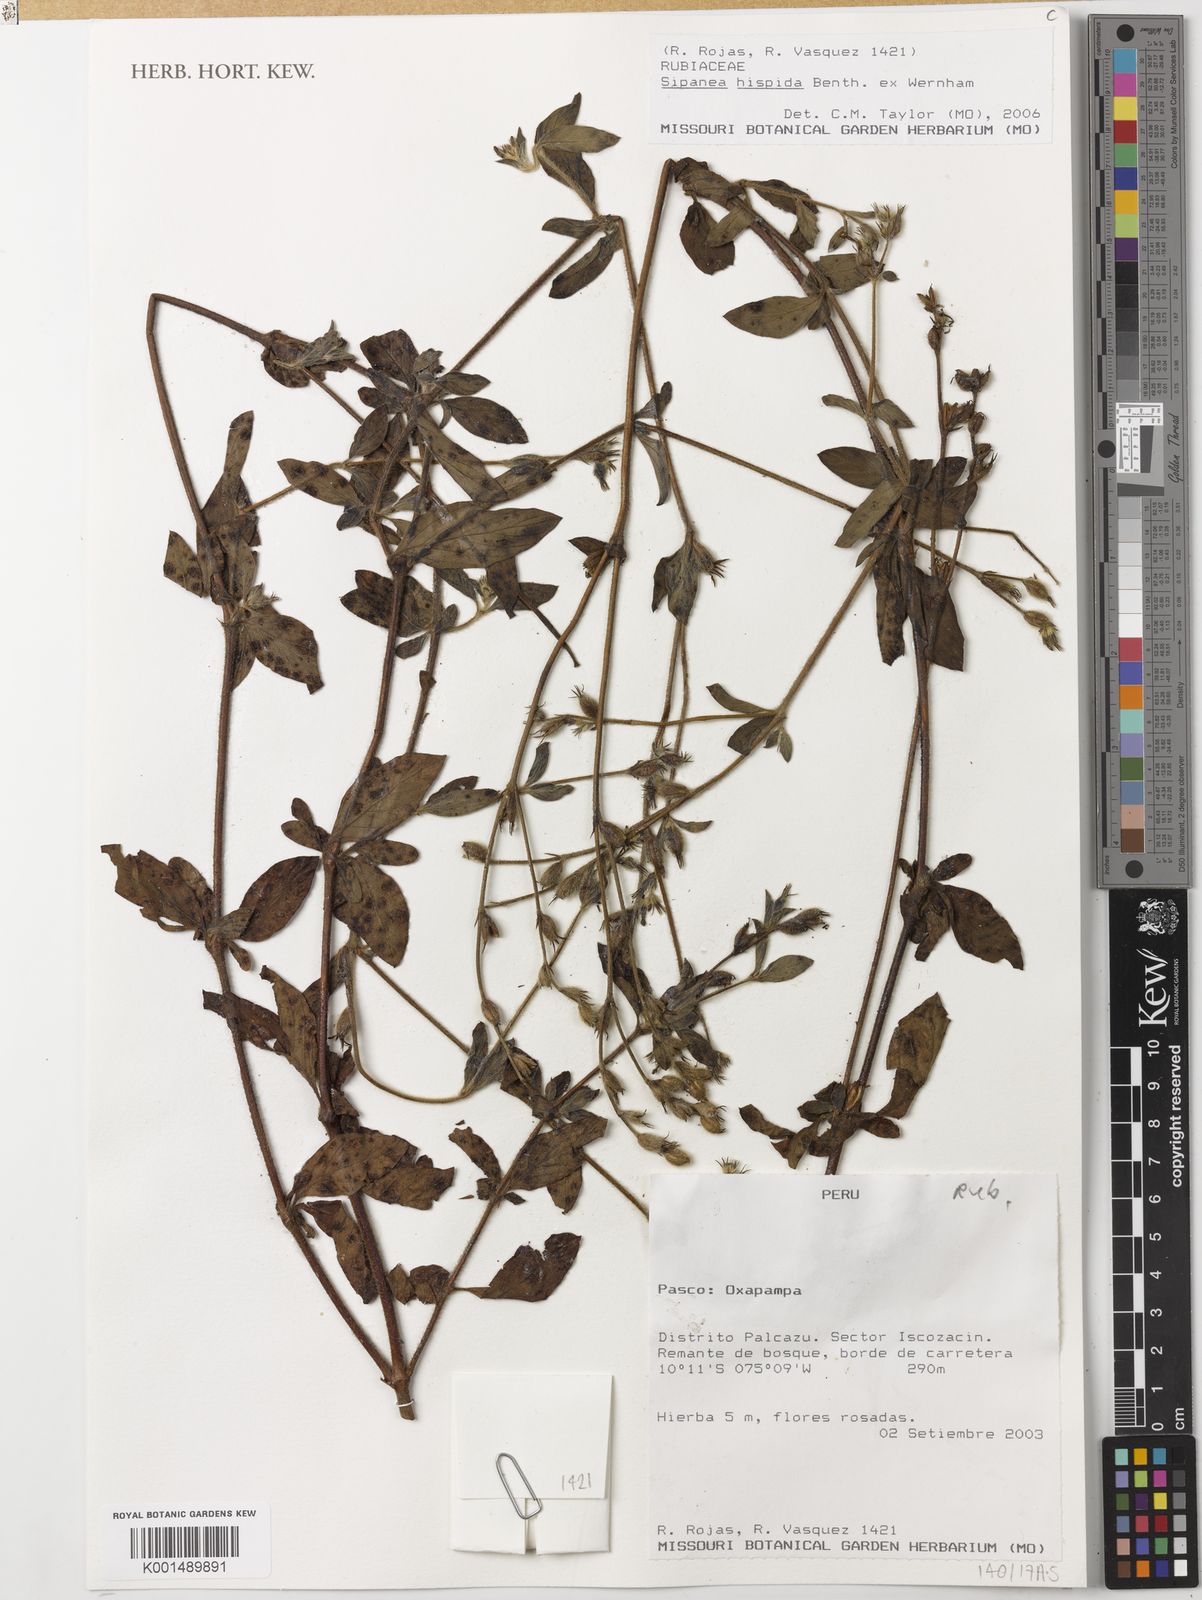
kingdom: Plantae
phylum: Tracheophyta
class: Magnoliopsida
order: Gentianales
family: Rubiaceae
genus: Sipanea
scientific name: Sipanea hispida
